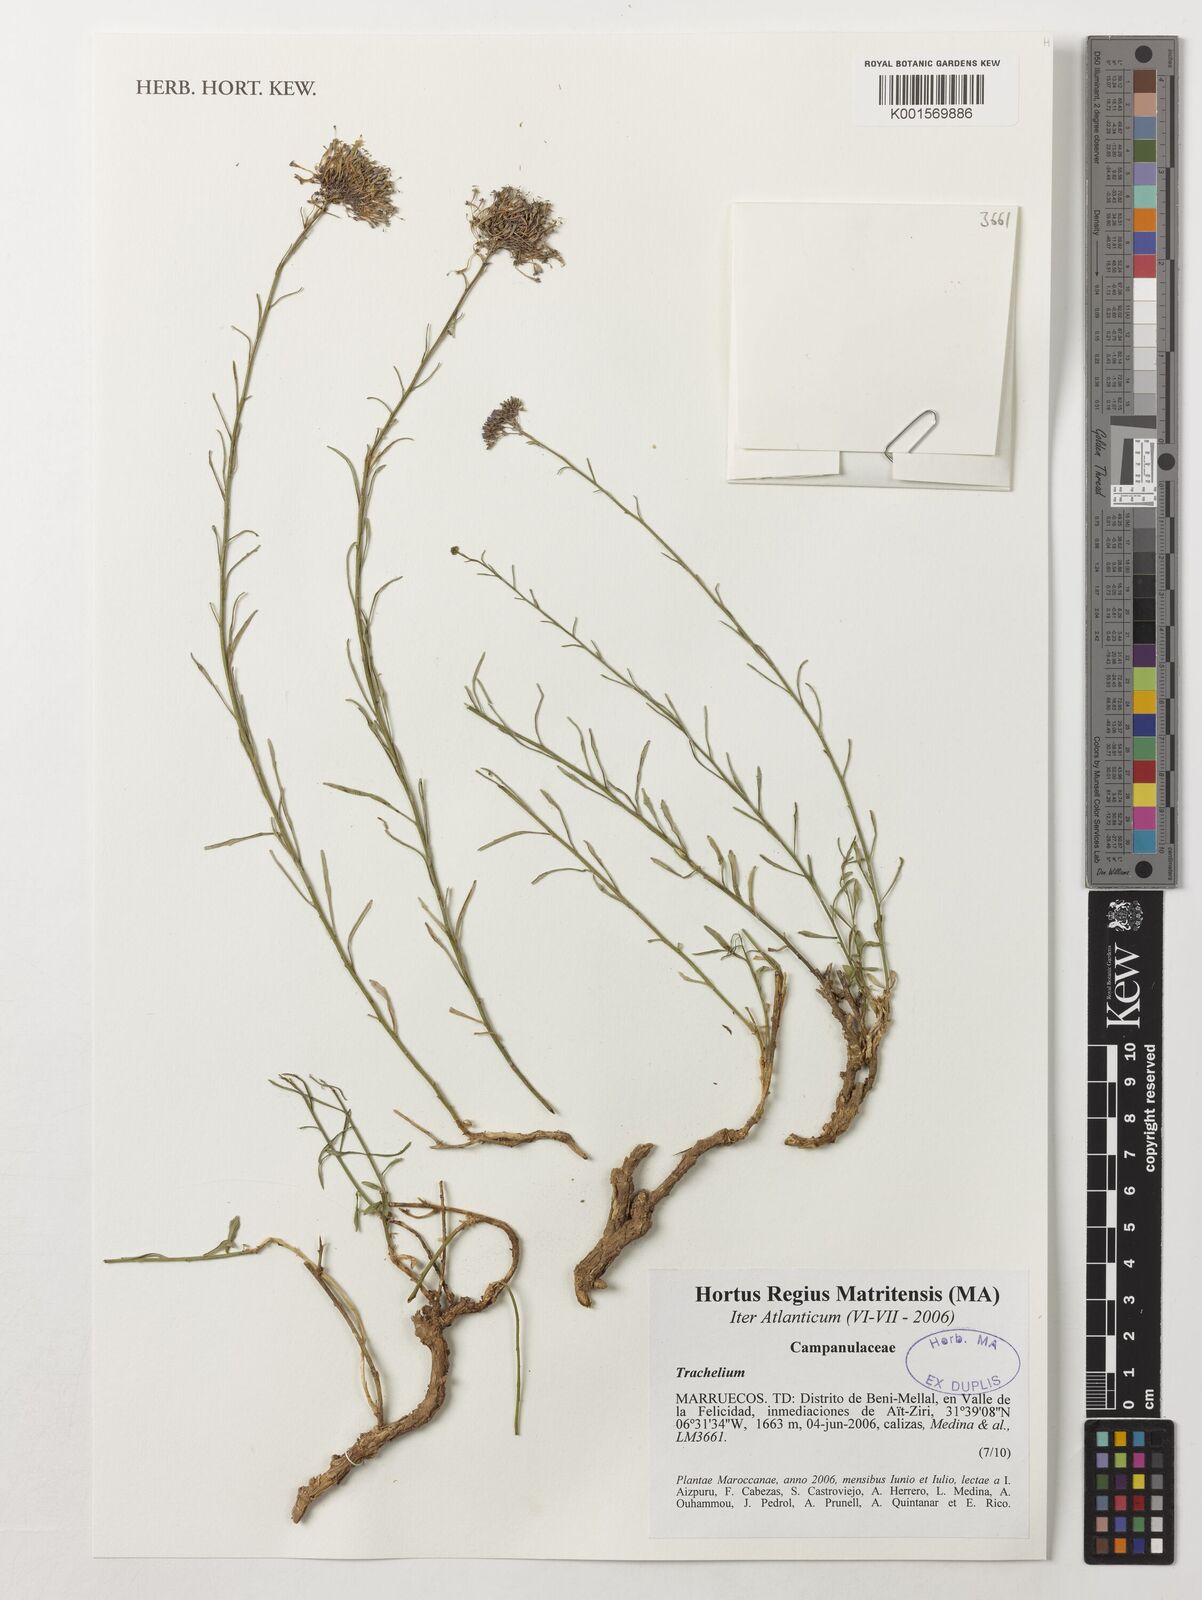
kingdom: Plantae
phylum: Tracheophyta
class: Magnoliopsida
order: Asterales
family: Campanulaceae
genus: Trachelium
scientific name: Trachelium
